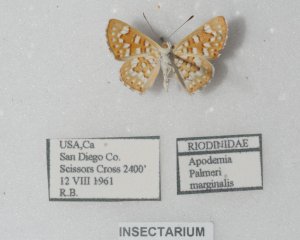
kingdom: Animalia
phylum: Arthropoda
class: Insecta
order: Lepidoptera
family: Riodinidae
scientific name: Riodinidae
